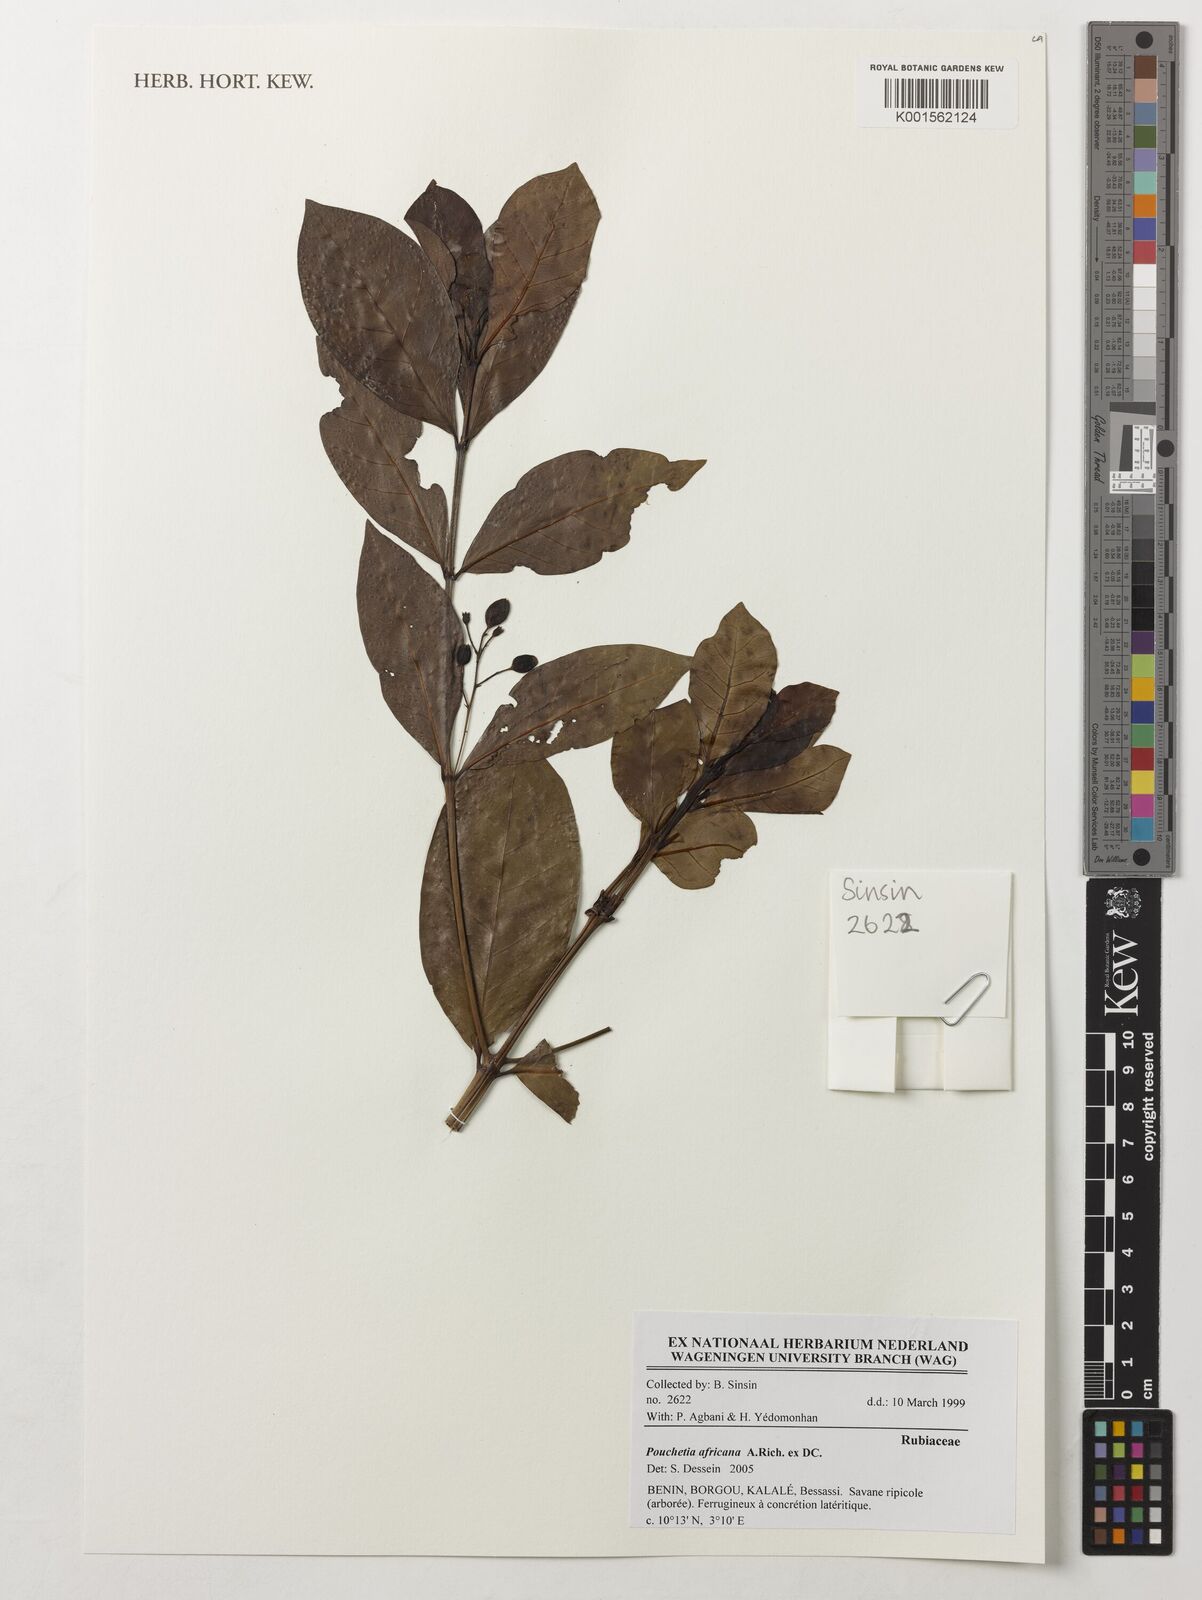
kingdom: Plantae
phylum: Tracheophyta
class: Magnoliopsida
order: Gentianales
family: Rubiaceae
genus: Pouchetia
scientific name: Pouchetia africana
